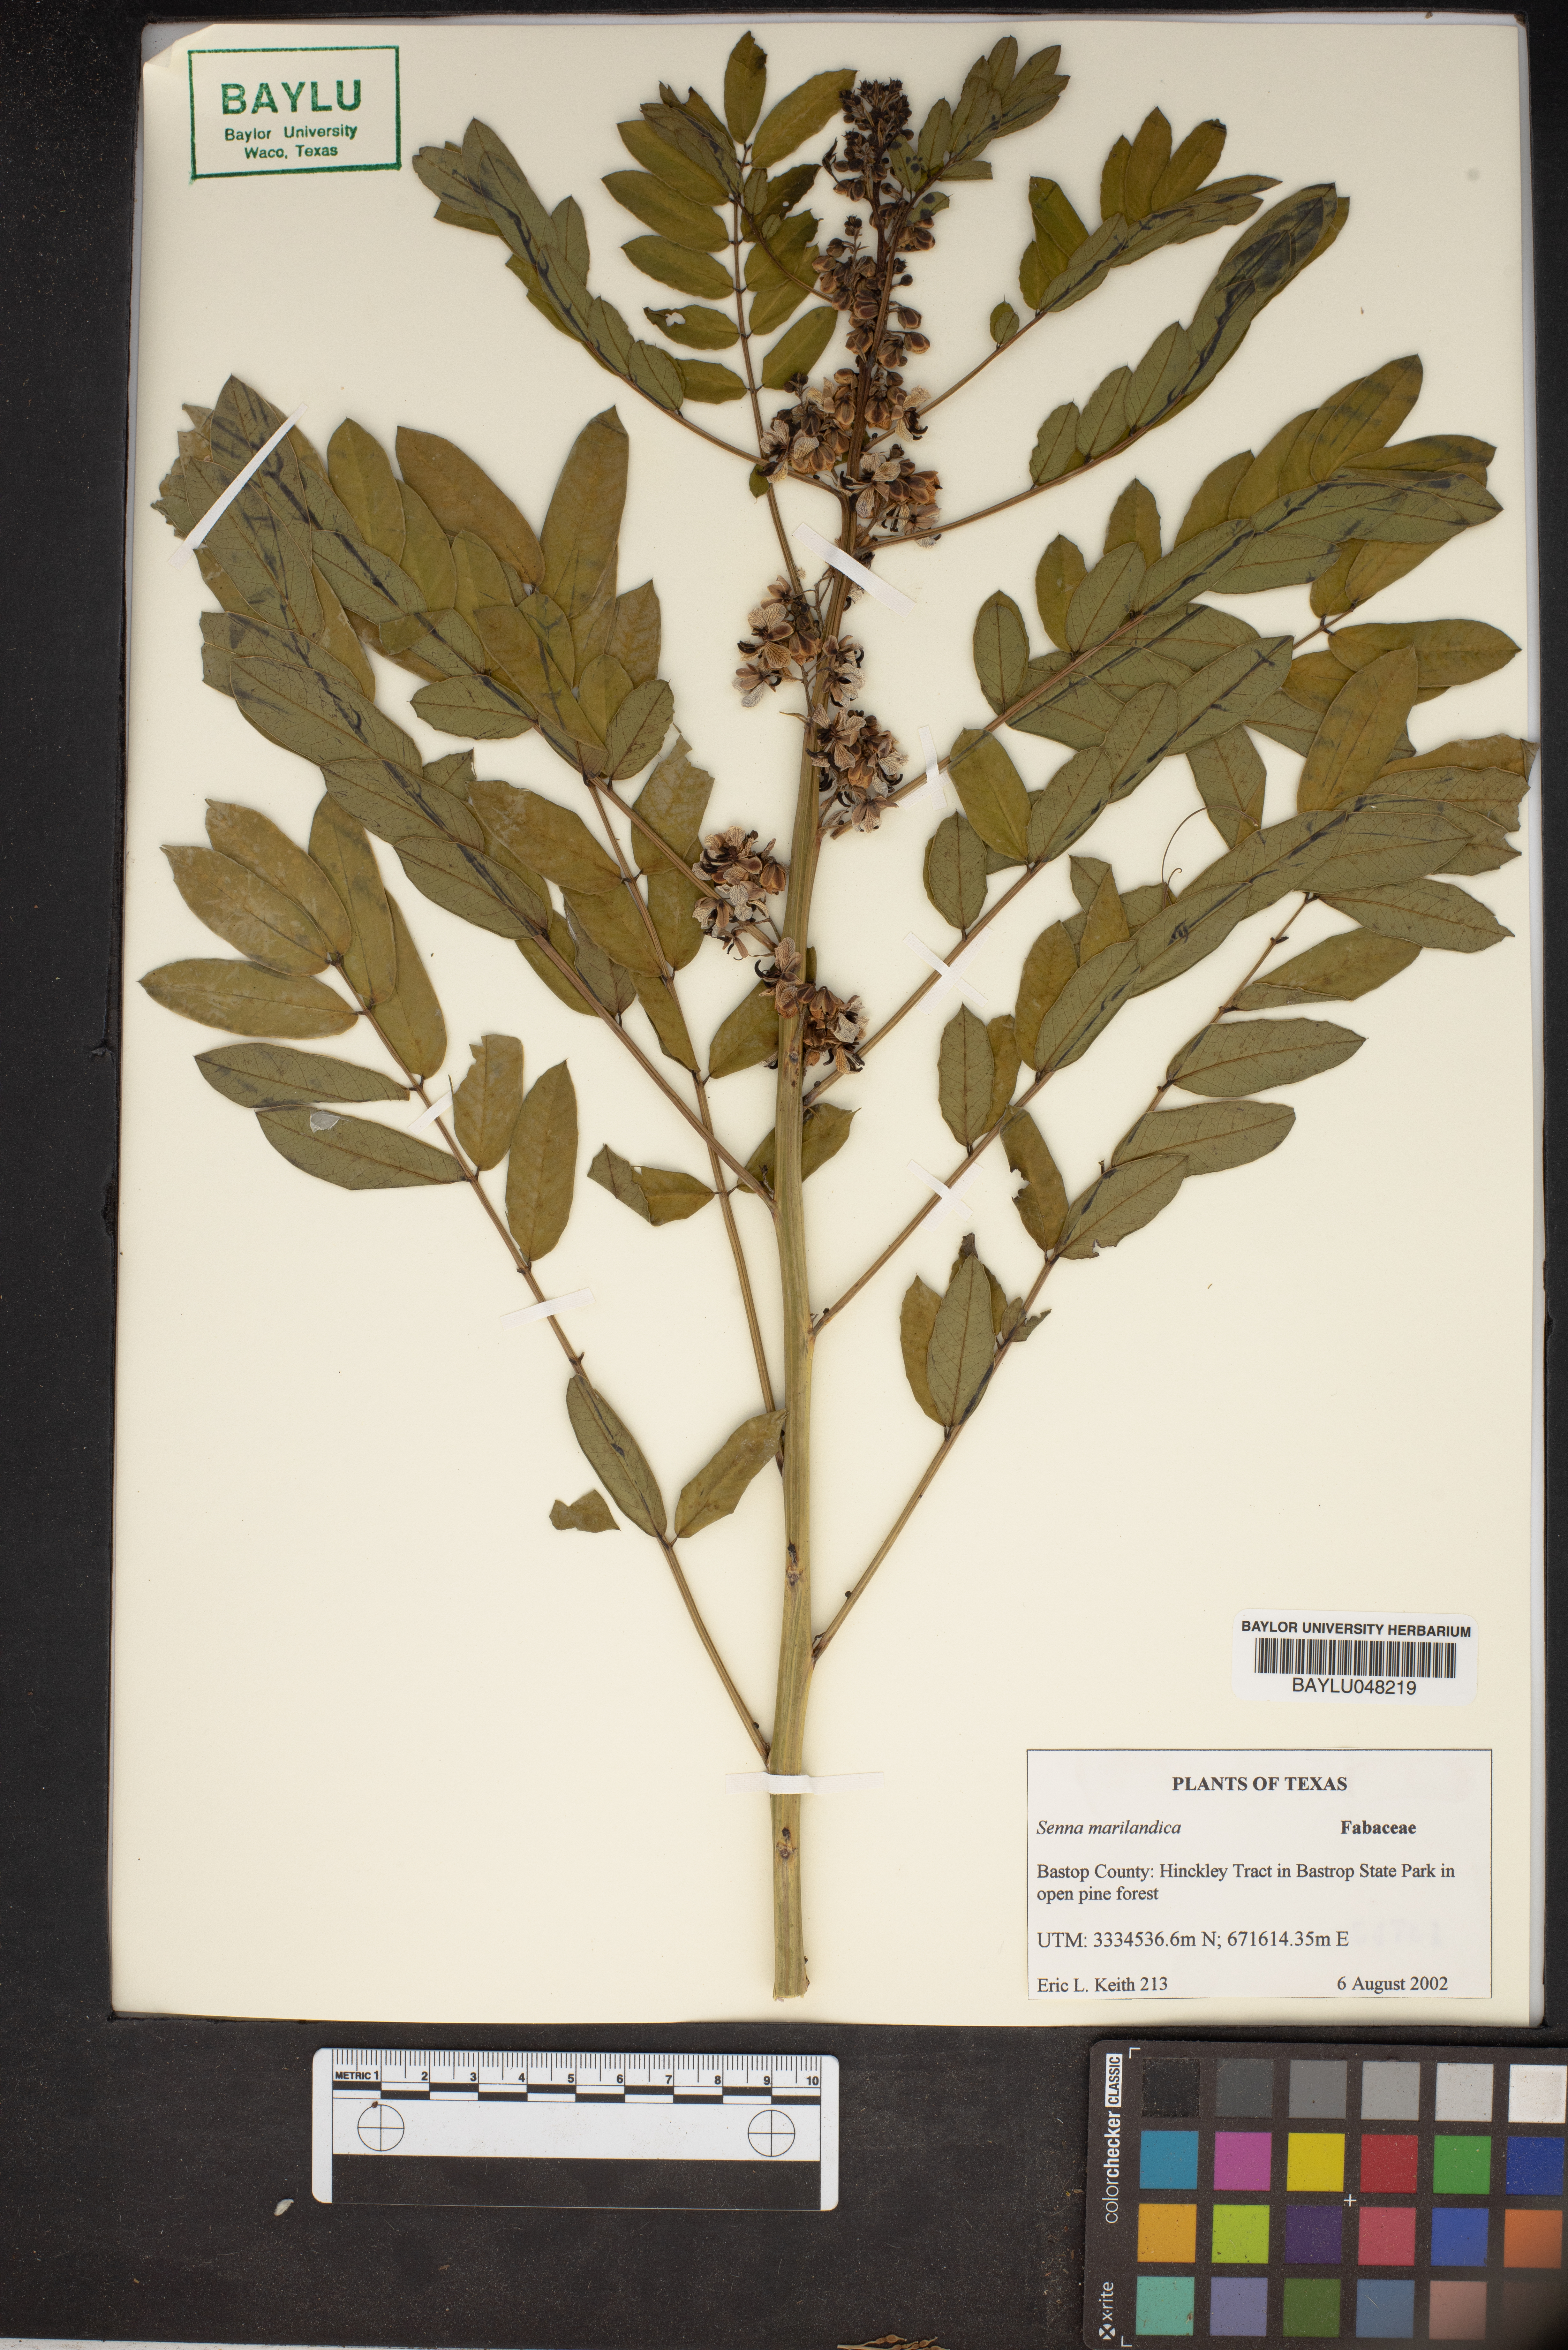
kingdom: Plantae
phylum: Tracheophyta
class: Magnoliopsida
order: Fabales
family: Fabaceae
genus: Senna
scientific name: Senna marilandica
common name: American senna
